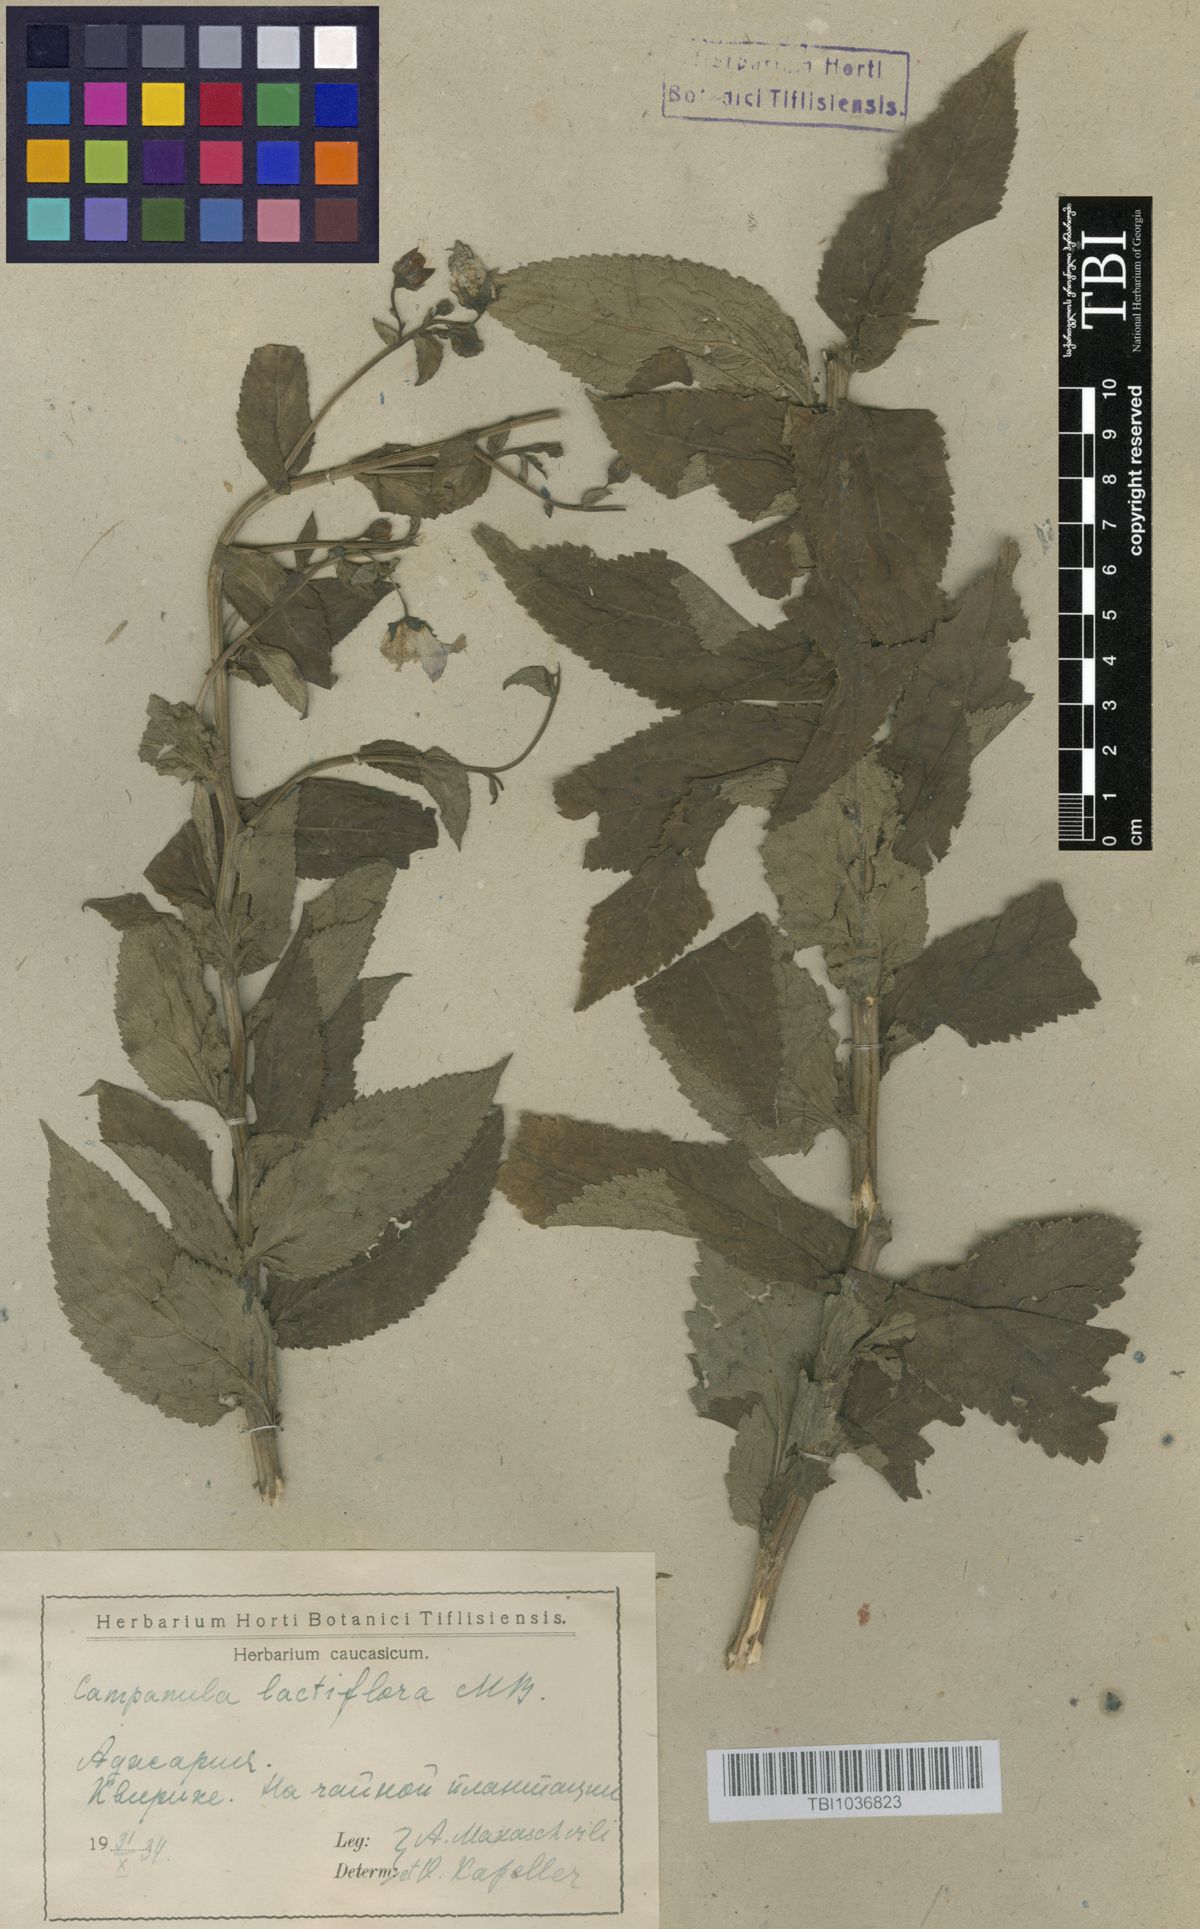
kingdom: Plantae
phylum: Tracheophyta
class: Magnoliopsida
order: Asterales
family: Campanulaceae
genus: Campanula
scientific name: Campanula lactiflora
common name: Milky bellflower
